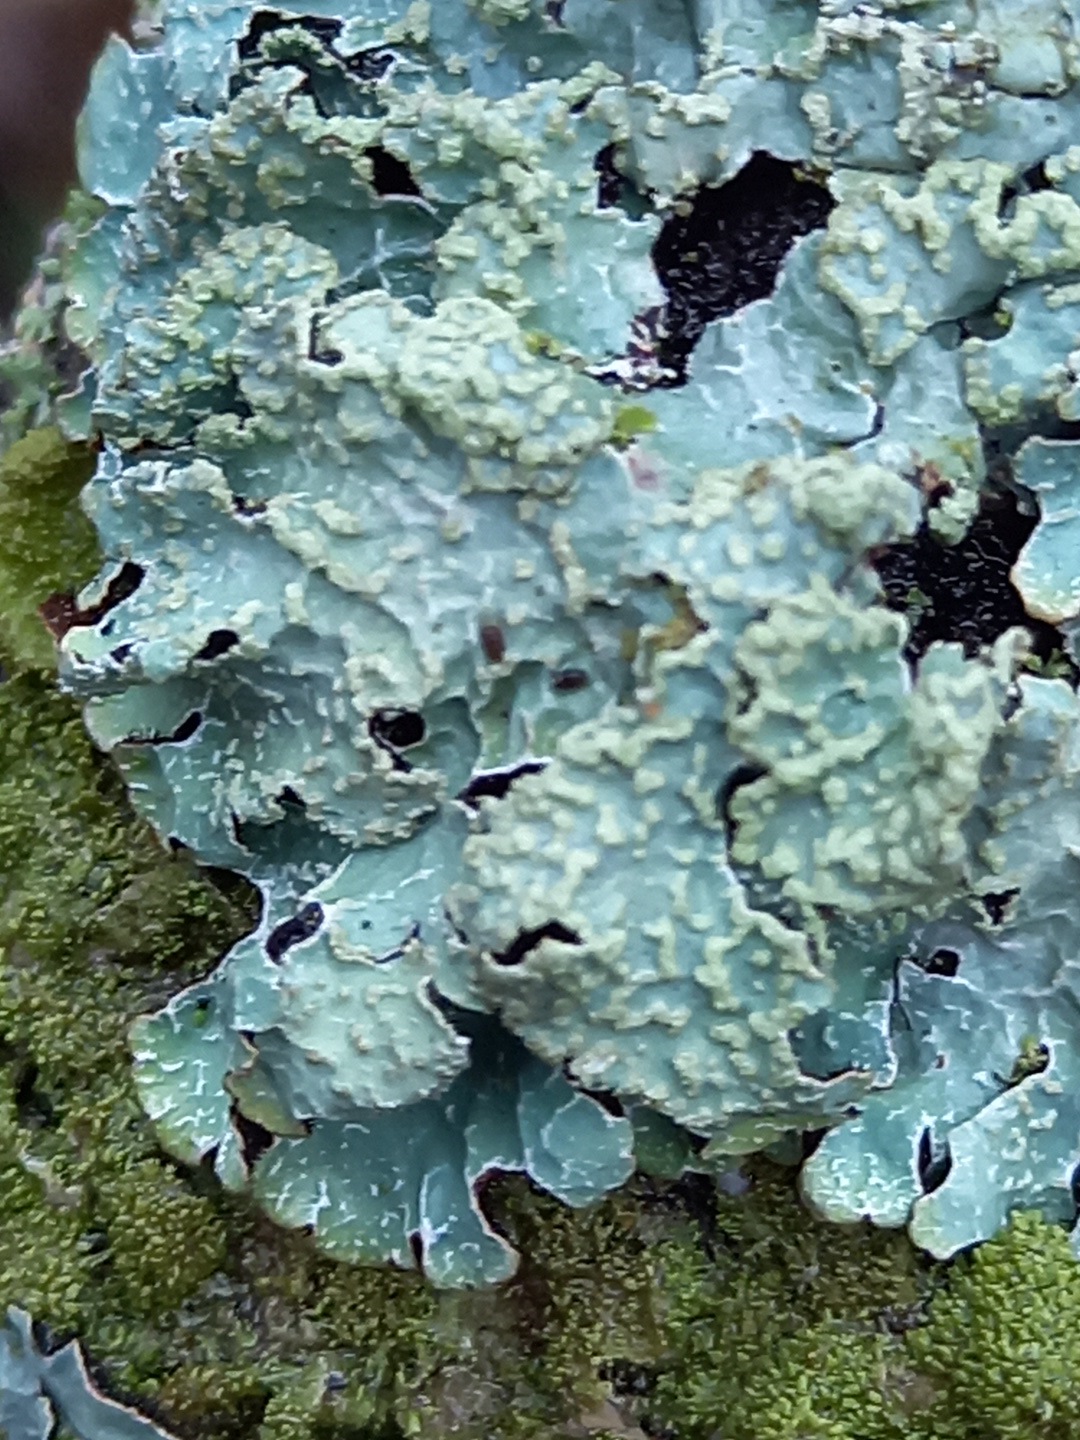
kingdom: Fungi
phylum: Ascomycota
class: Lecanoromycetes
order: Lecanorales
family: Parmeliaceae
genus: Parmelia
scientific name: Parmelia sulcata
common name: rynket skållav
